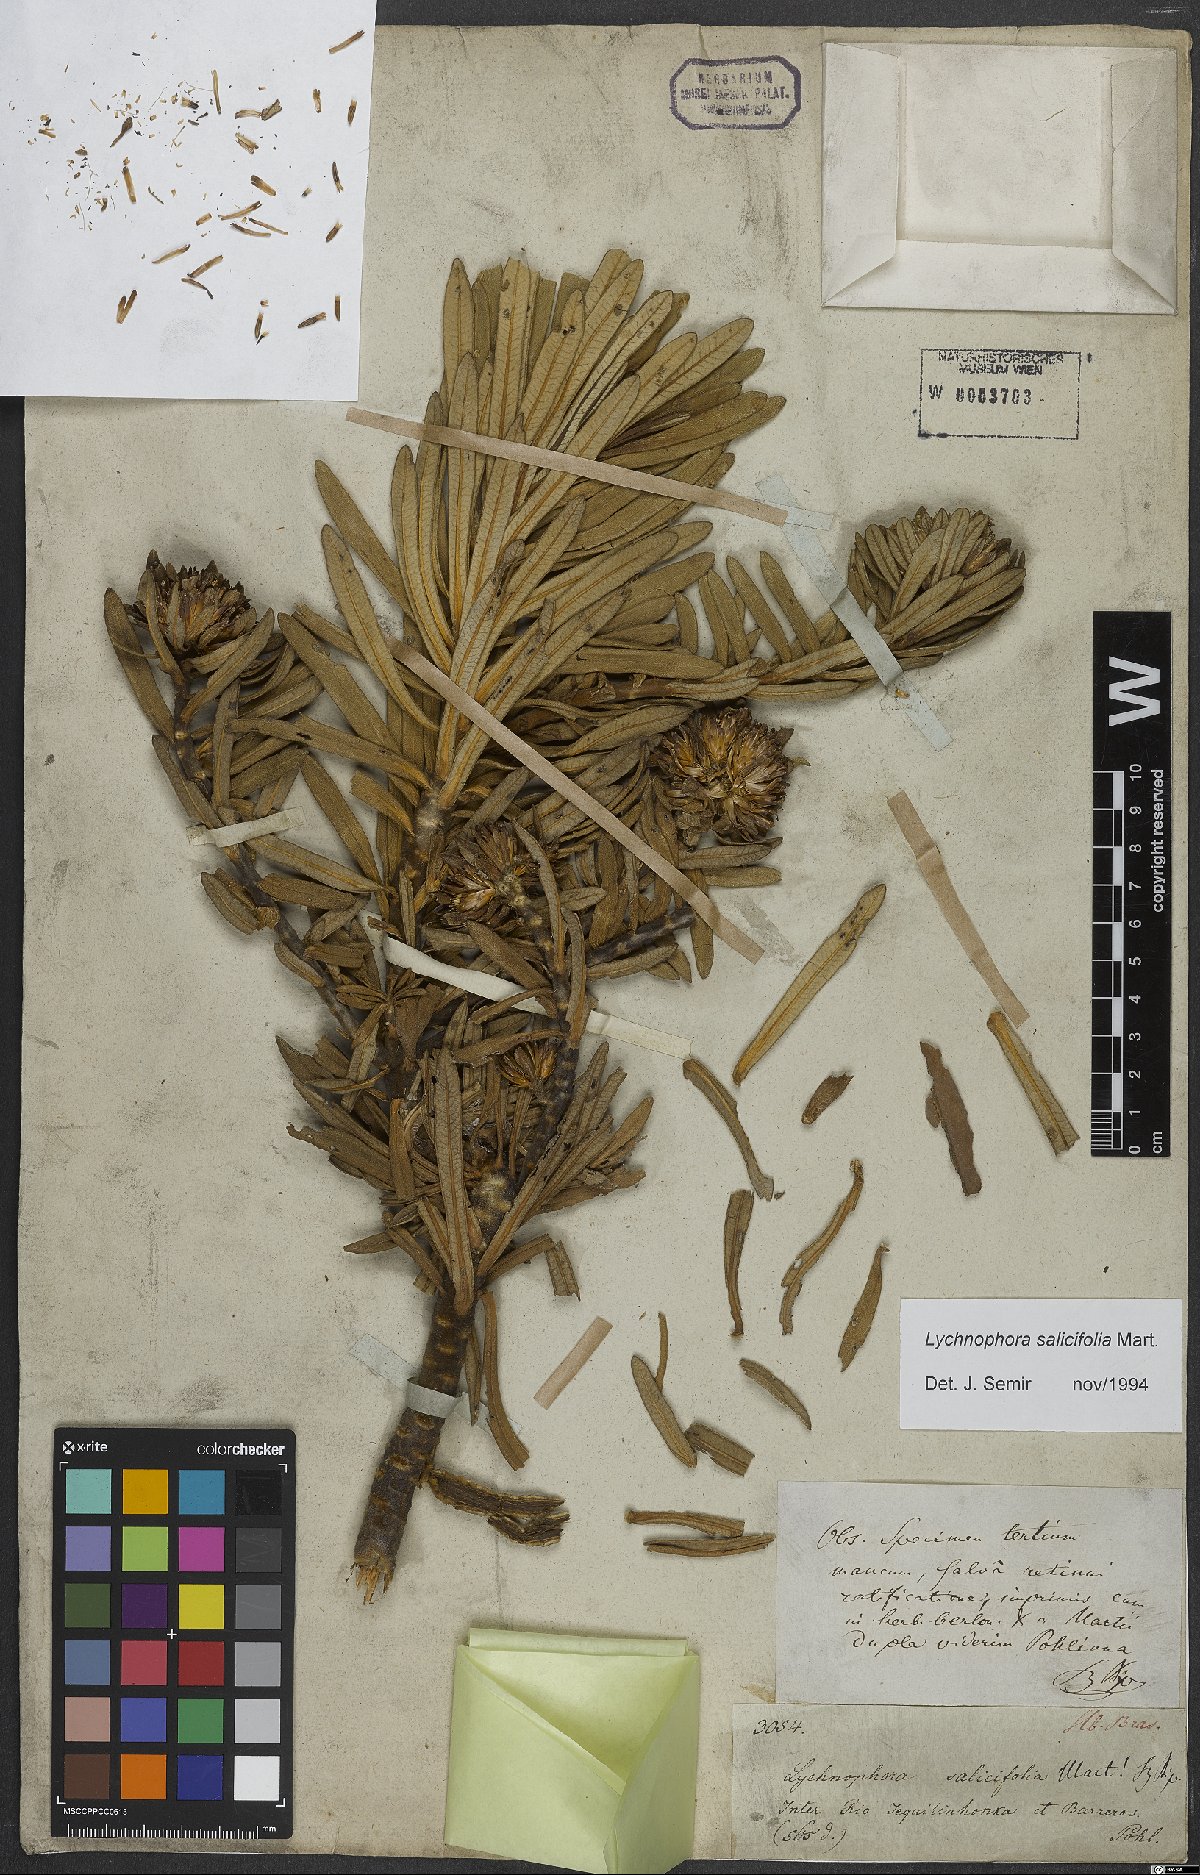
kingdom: Plantae
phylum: Tracheophyta
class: Magnoliopsida
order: Asterales
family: Asteraceae
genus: Lychnophora
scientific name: Lychnophora salicifolia
